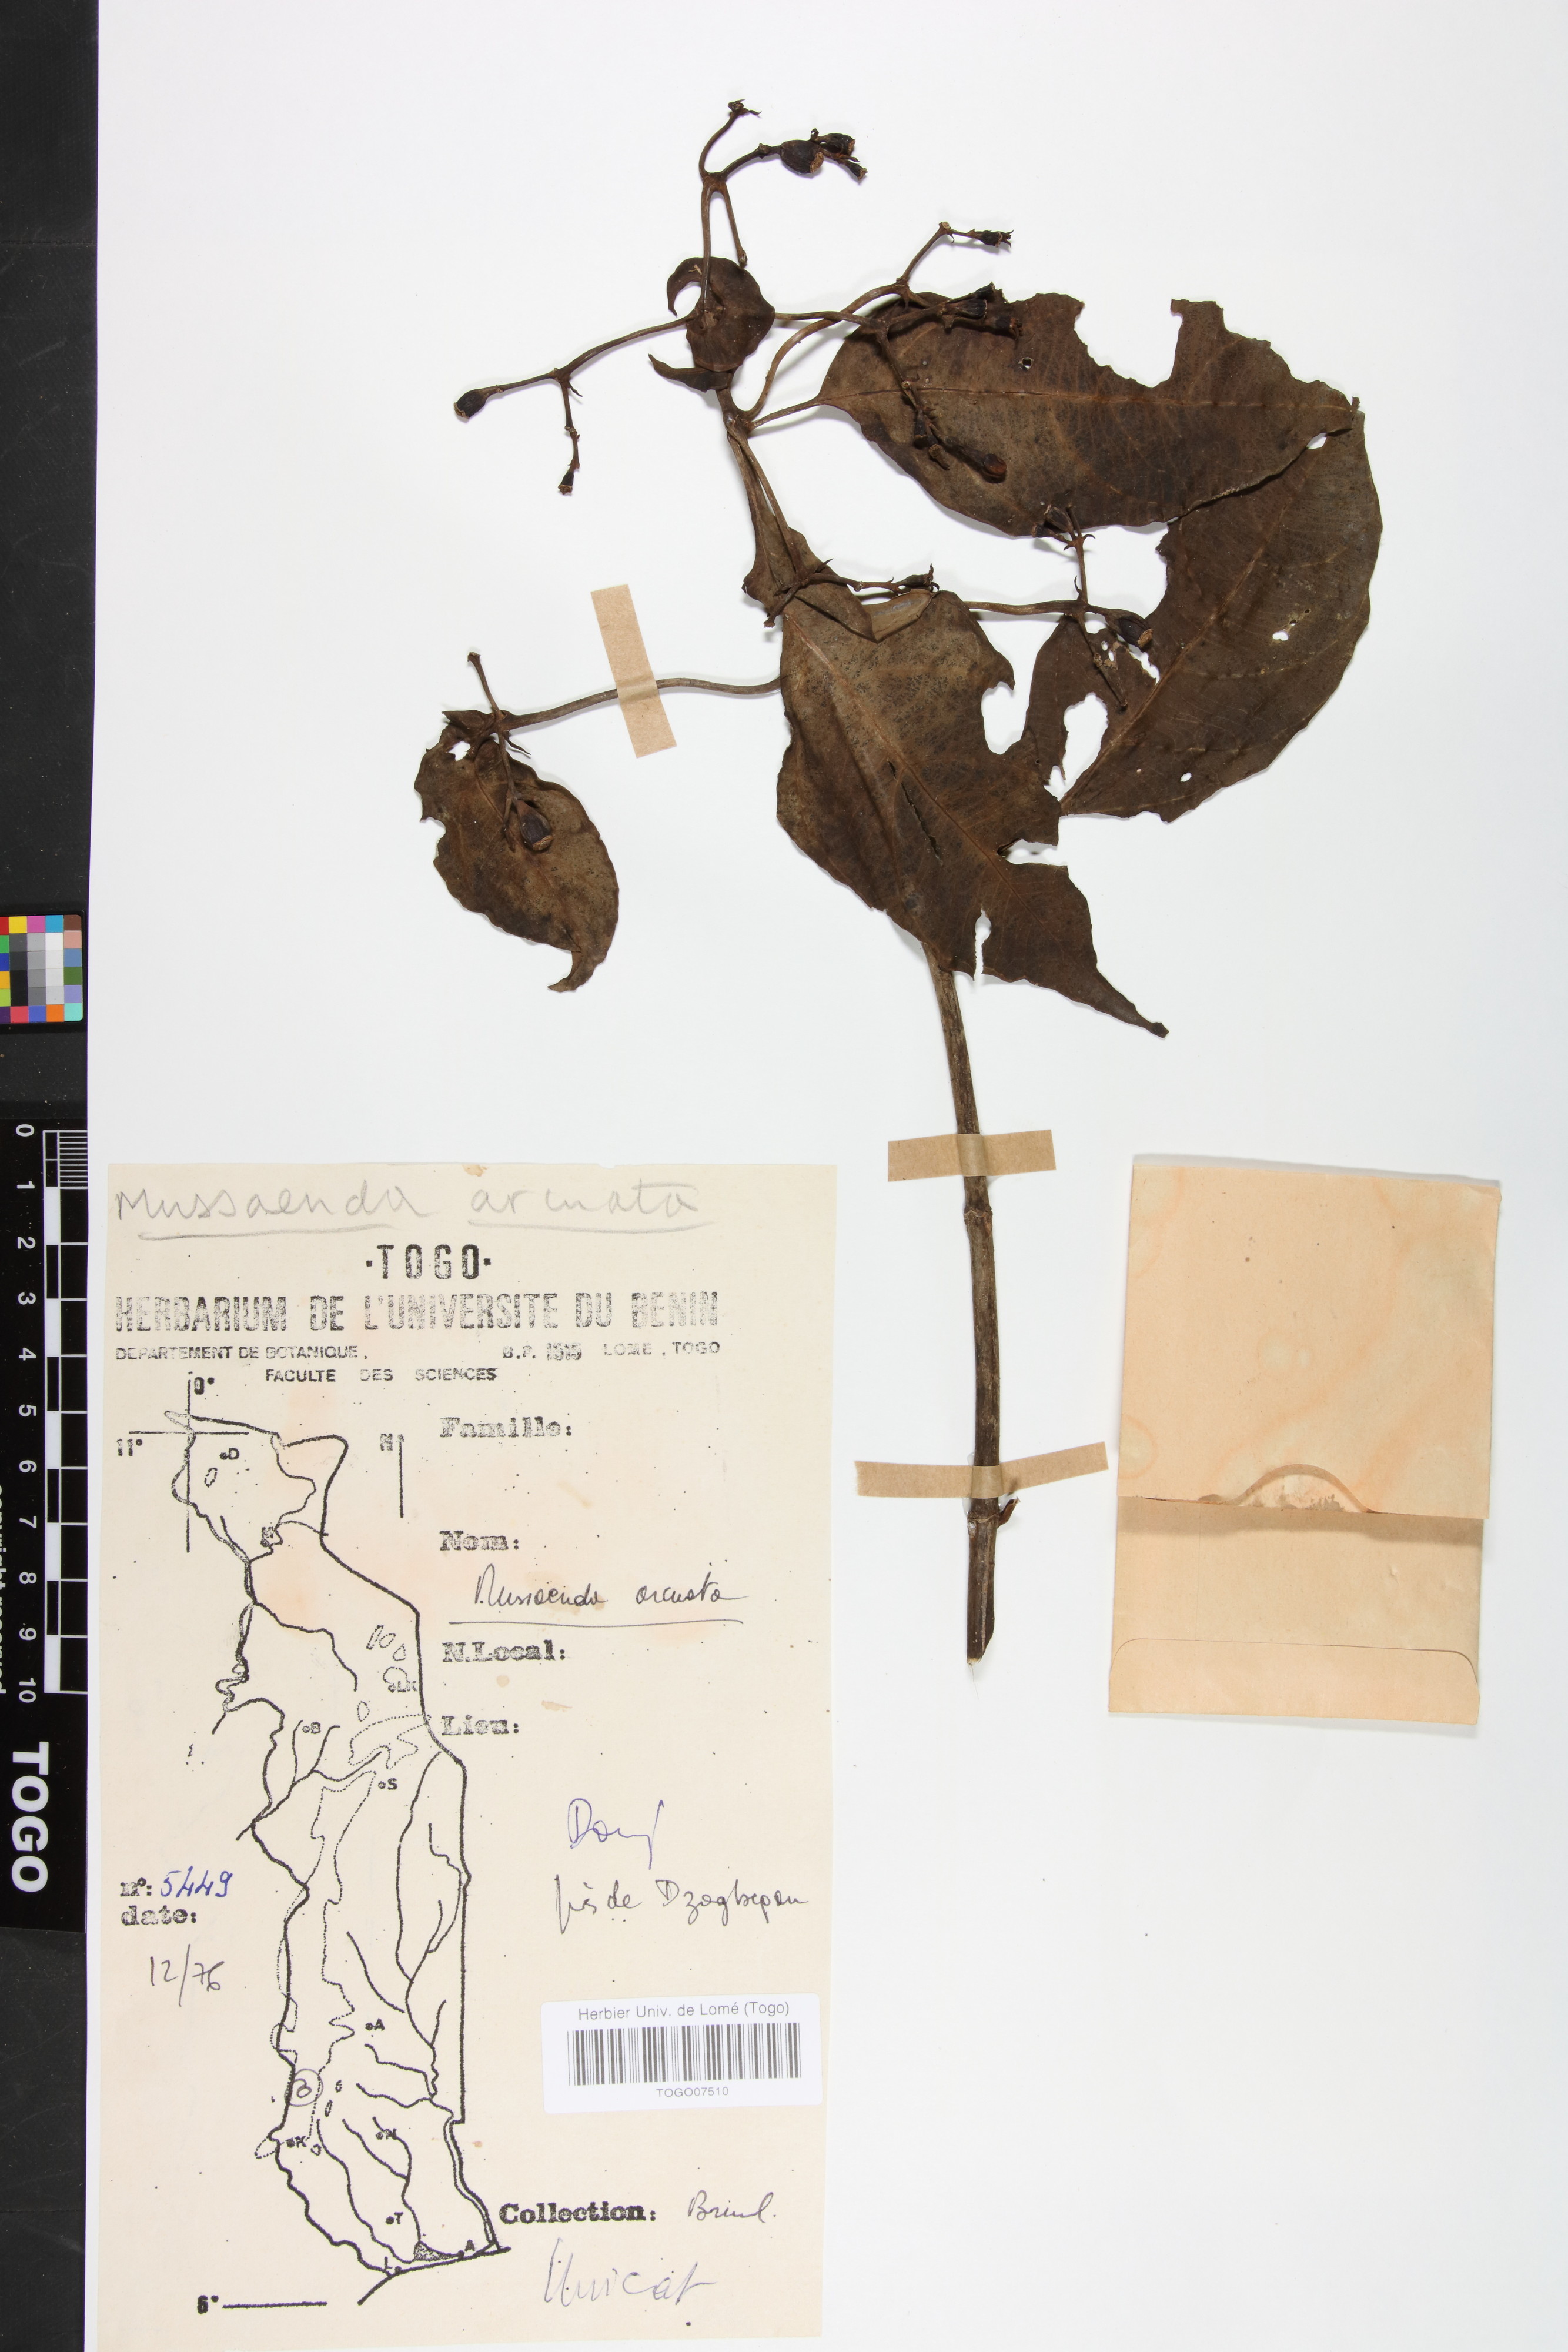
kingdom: Plantae
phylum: Tracheophyta
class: Magnoliopsida
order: Gentianales
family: Rubiaceae
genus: Mussaenda
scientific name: Mussaenda arcuata
